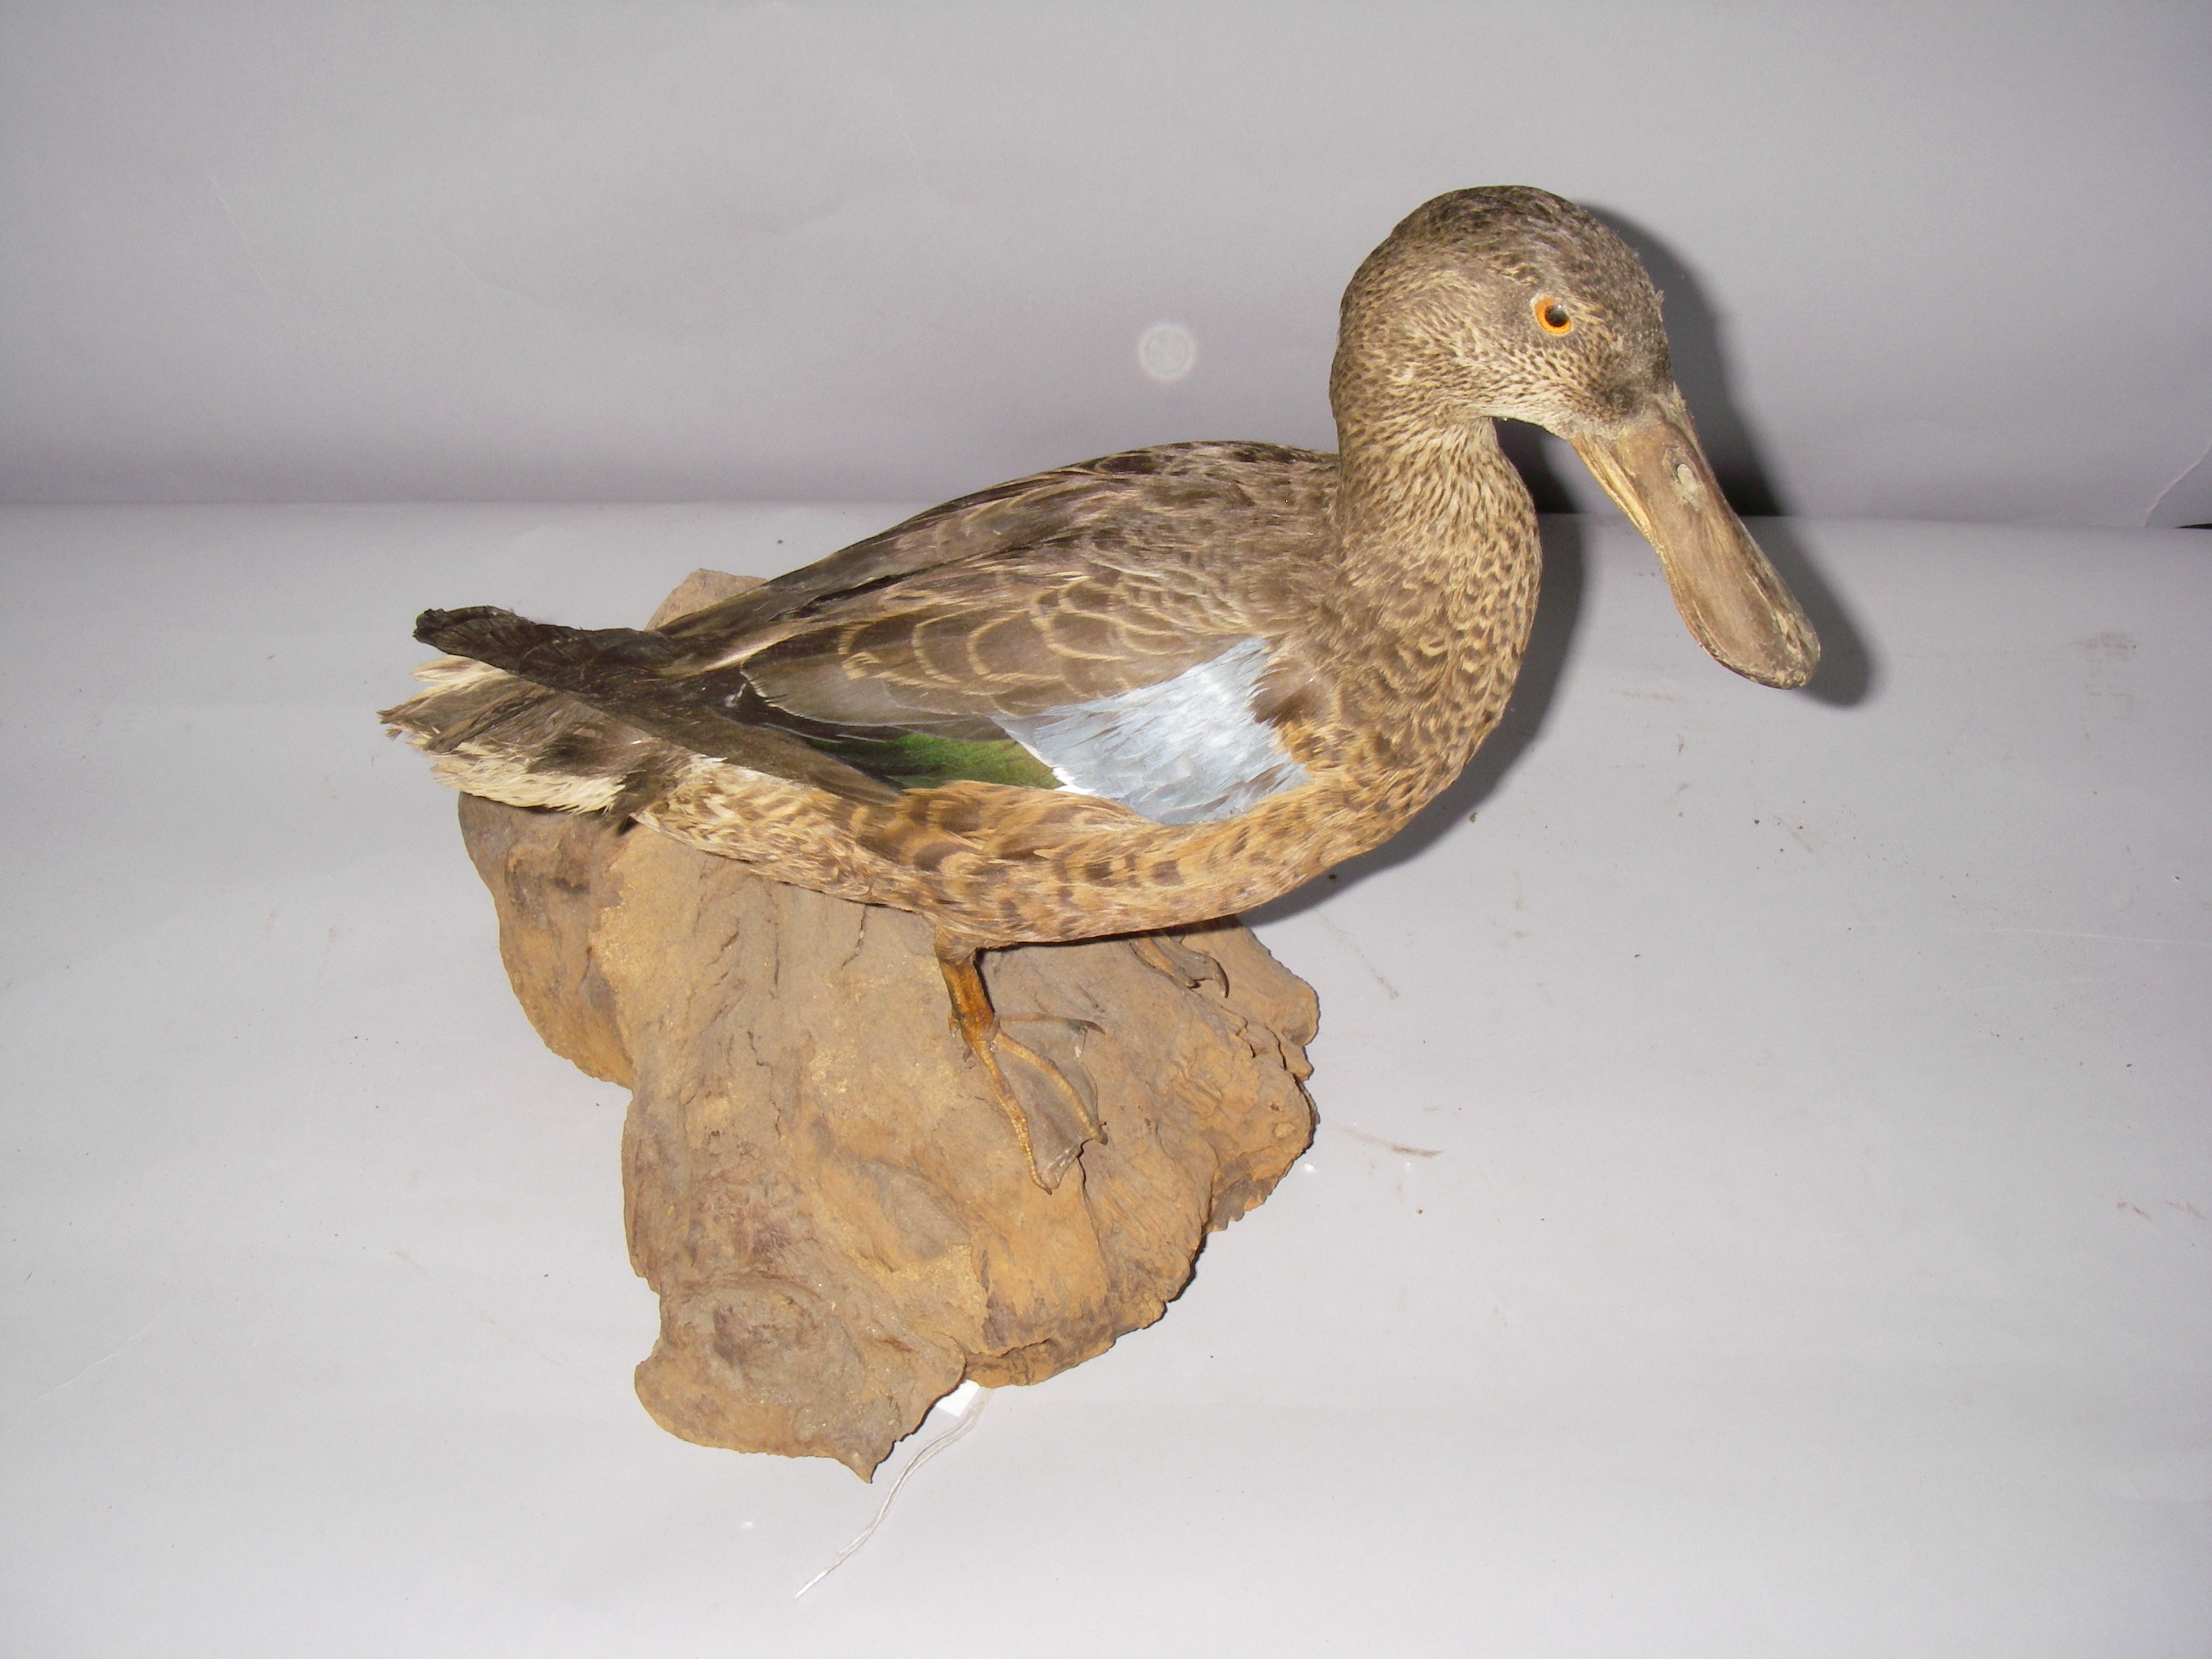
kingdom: Animalia
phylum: Chordata
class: Aves
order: Anseriformes
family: Anatidae
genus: Spatula
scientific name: Spatula clypeata
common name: Northern shoveler
